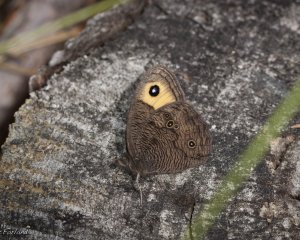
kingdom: Animalia
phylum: Arthropoda
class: Insecta
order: Lepidoptera
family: Nymphalidae
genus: Cercyonis
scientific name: Cercyonis pegala
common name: Common Wood-Nymph
